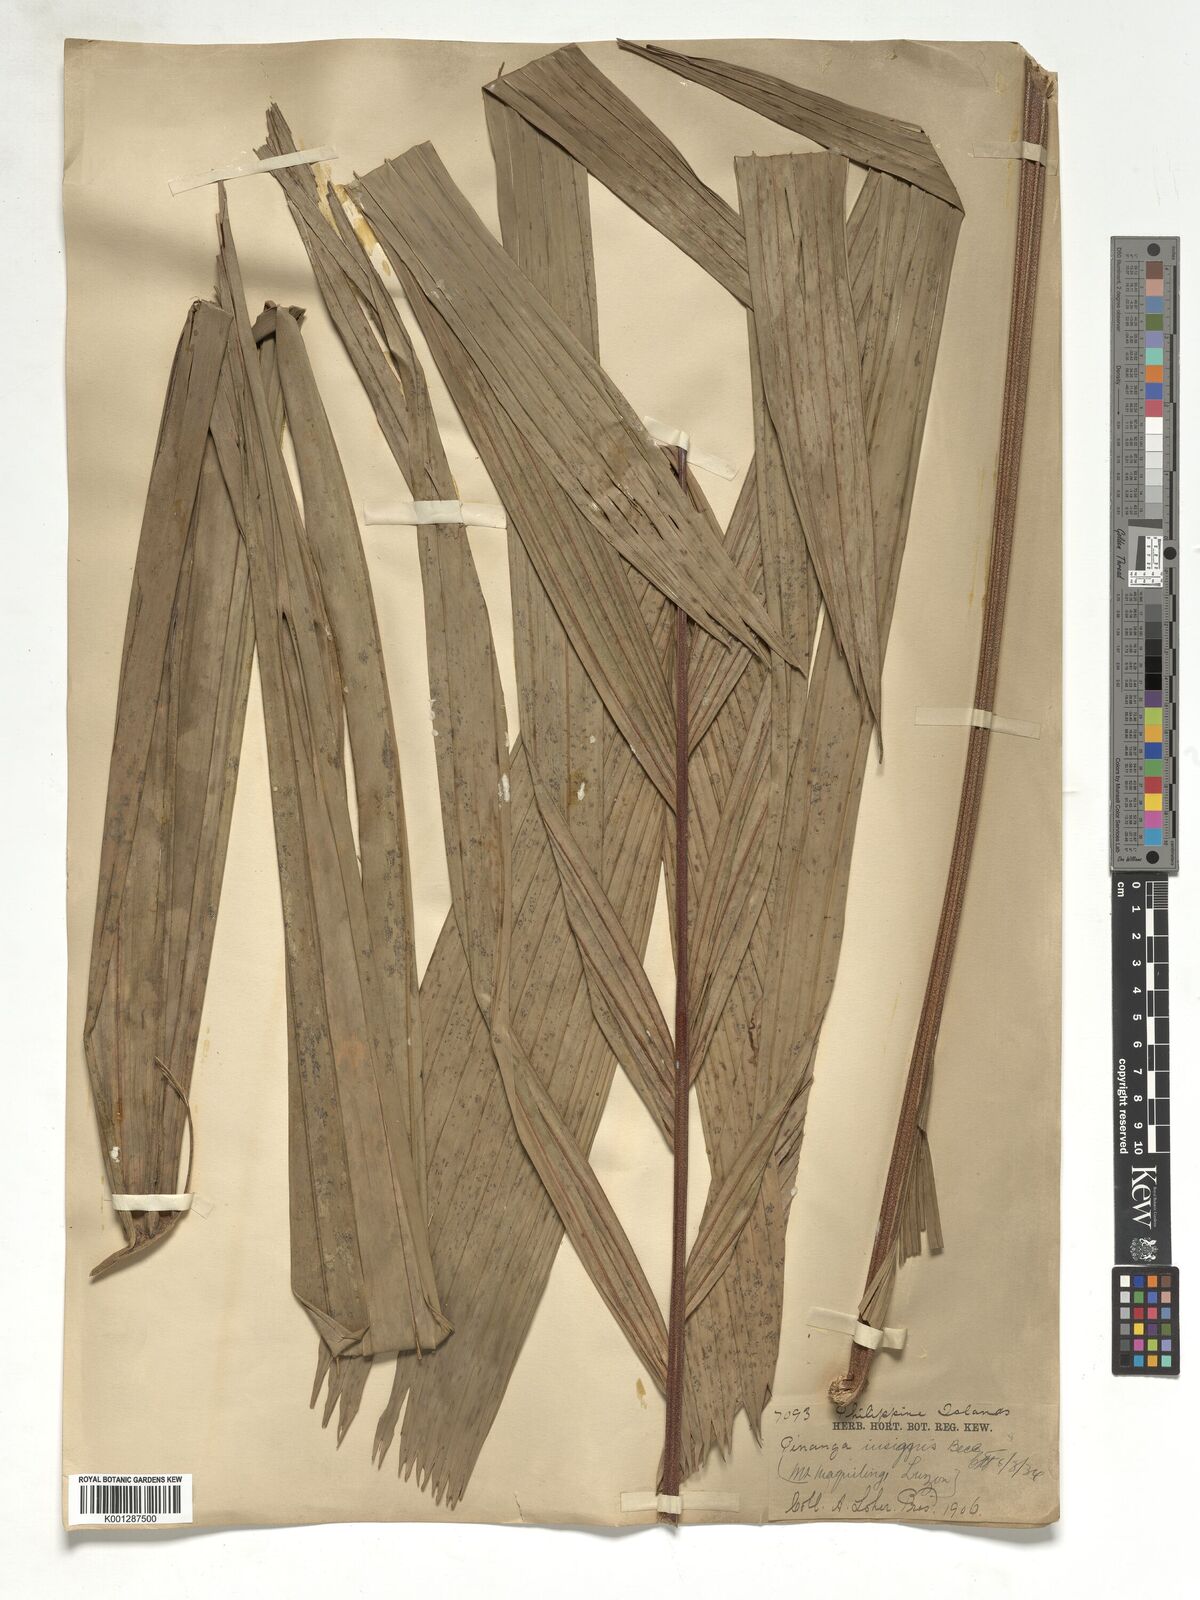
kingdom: Plantae
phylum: Tracheophyta
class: Liliopsida
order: Arecales
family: Arecaceae
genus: Pinanga
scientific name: Pinanga insignis
